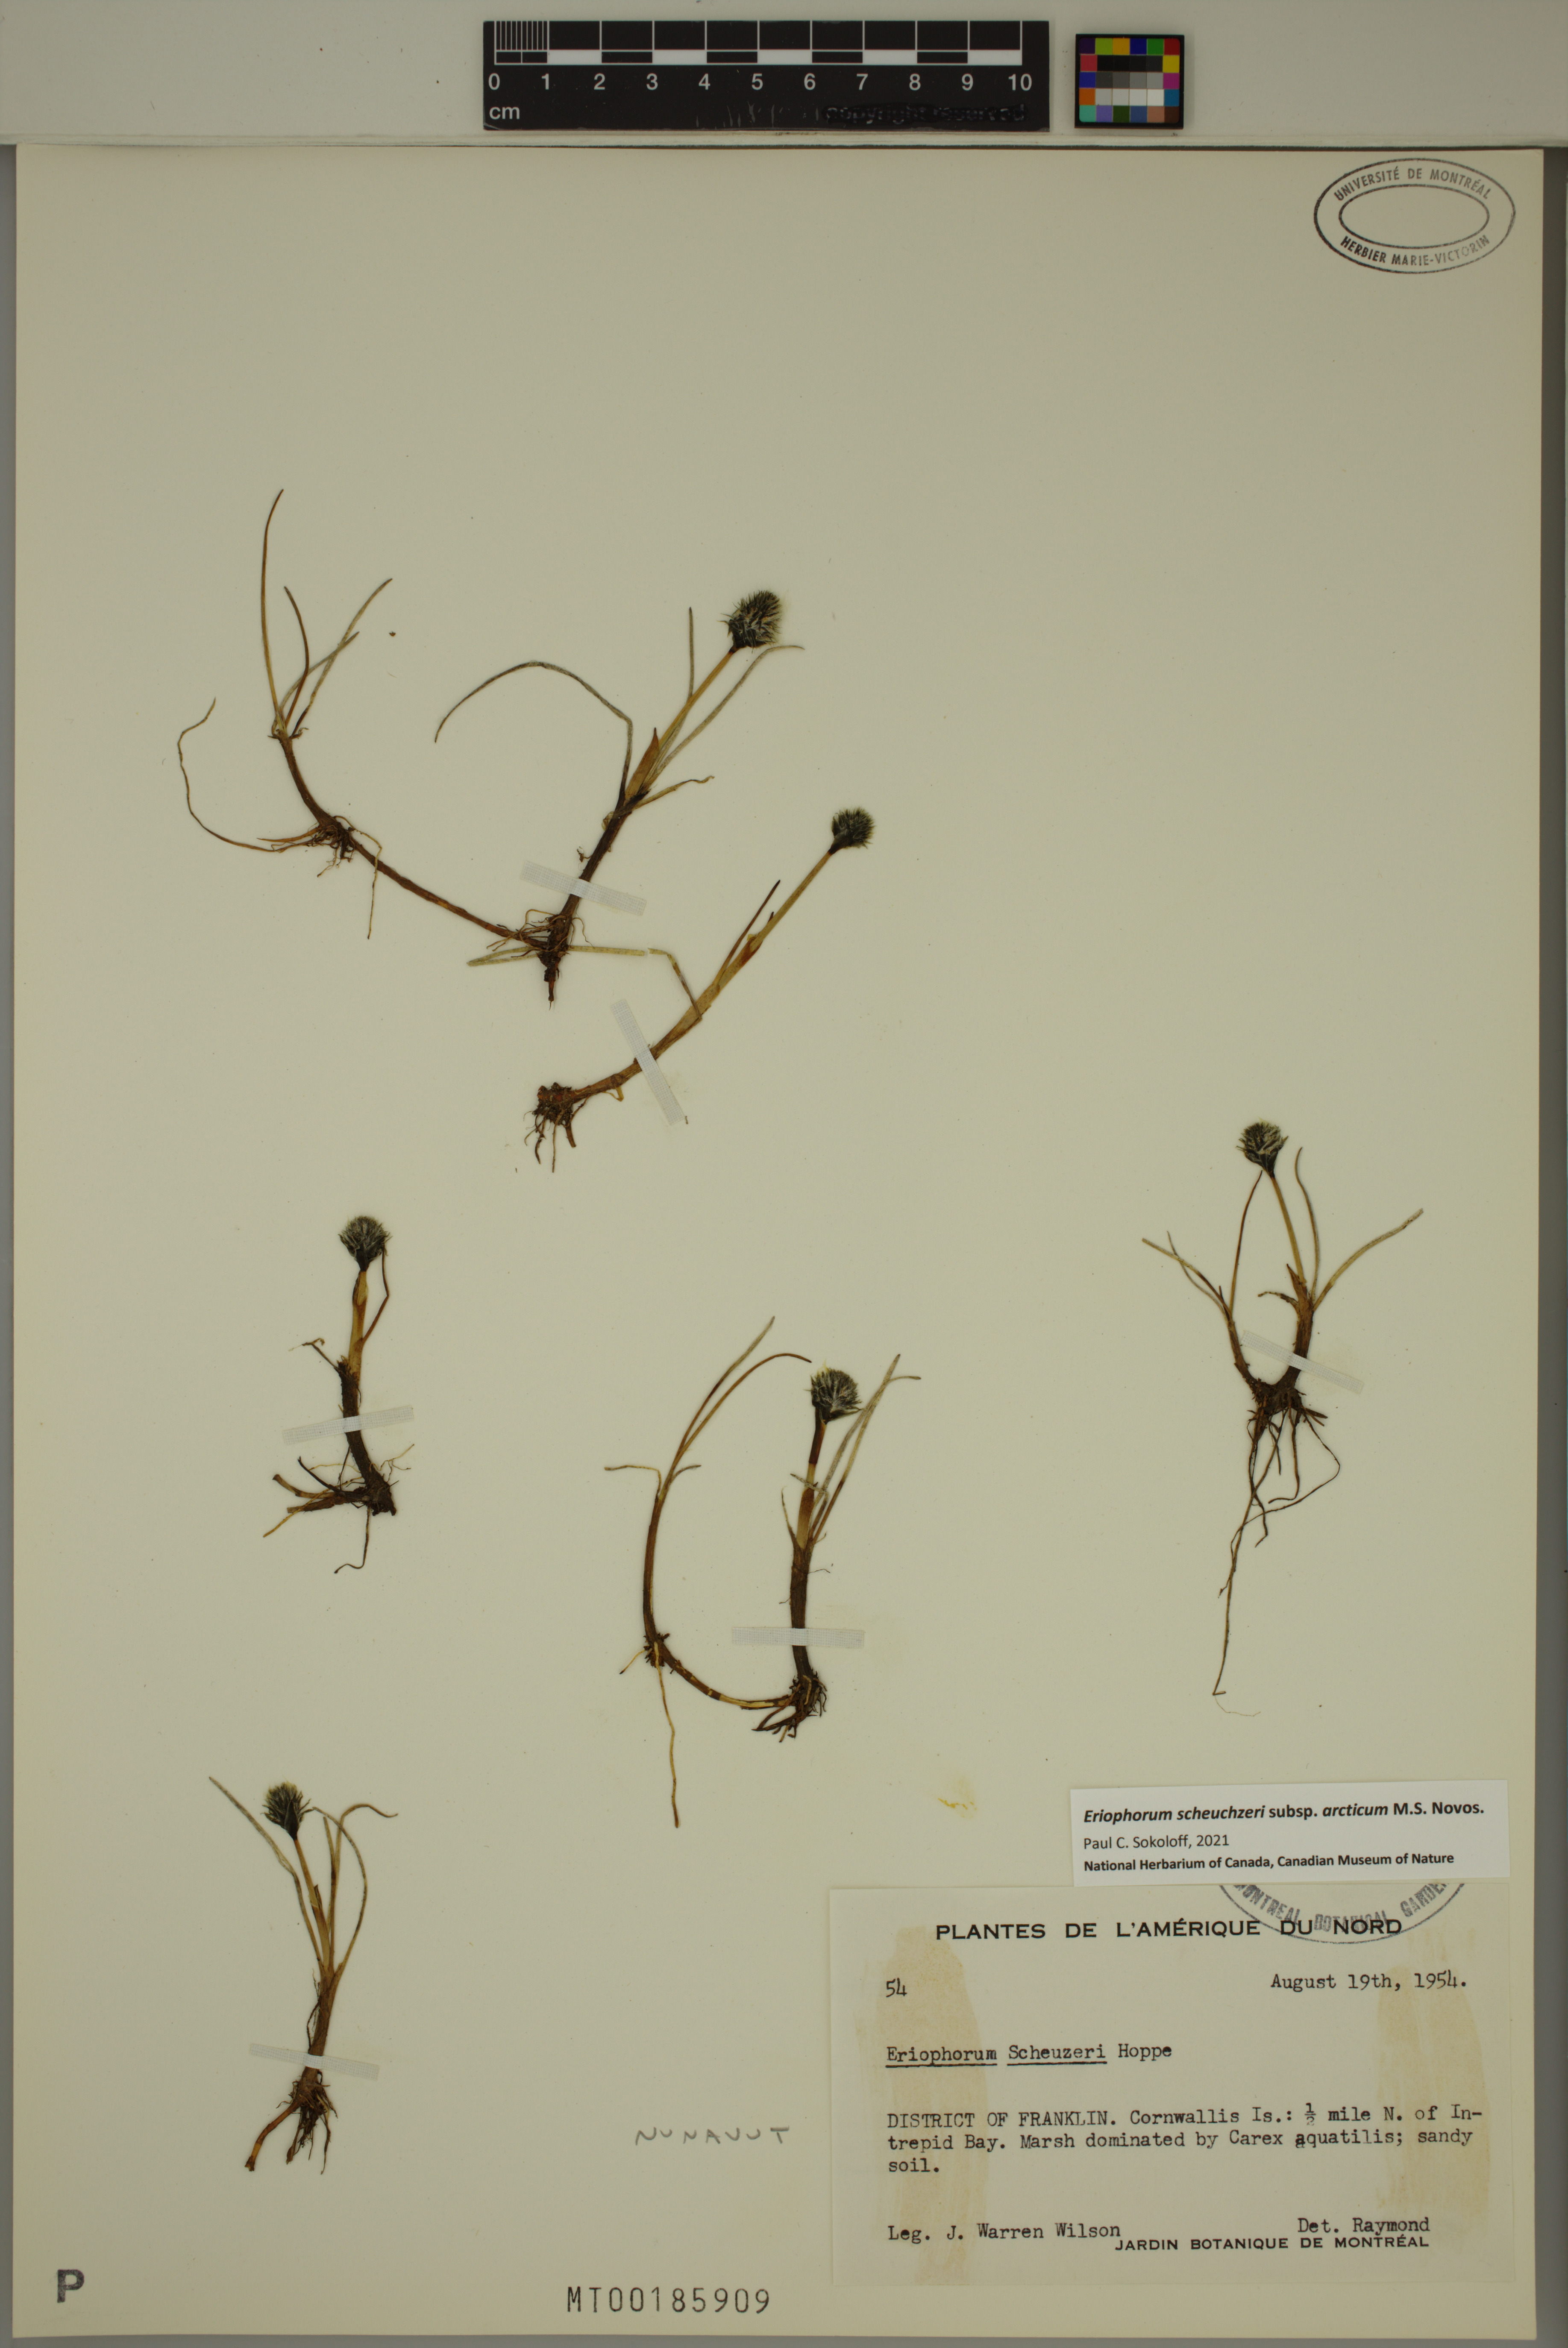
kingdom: Plantae
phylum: Tracheophyta
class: Liliopsida
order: Poales
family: Cyperaceae
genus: Eriophorum
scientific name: Eriophorum scheuchzeri
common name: Scheuchzer's cottongrass
